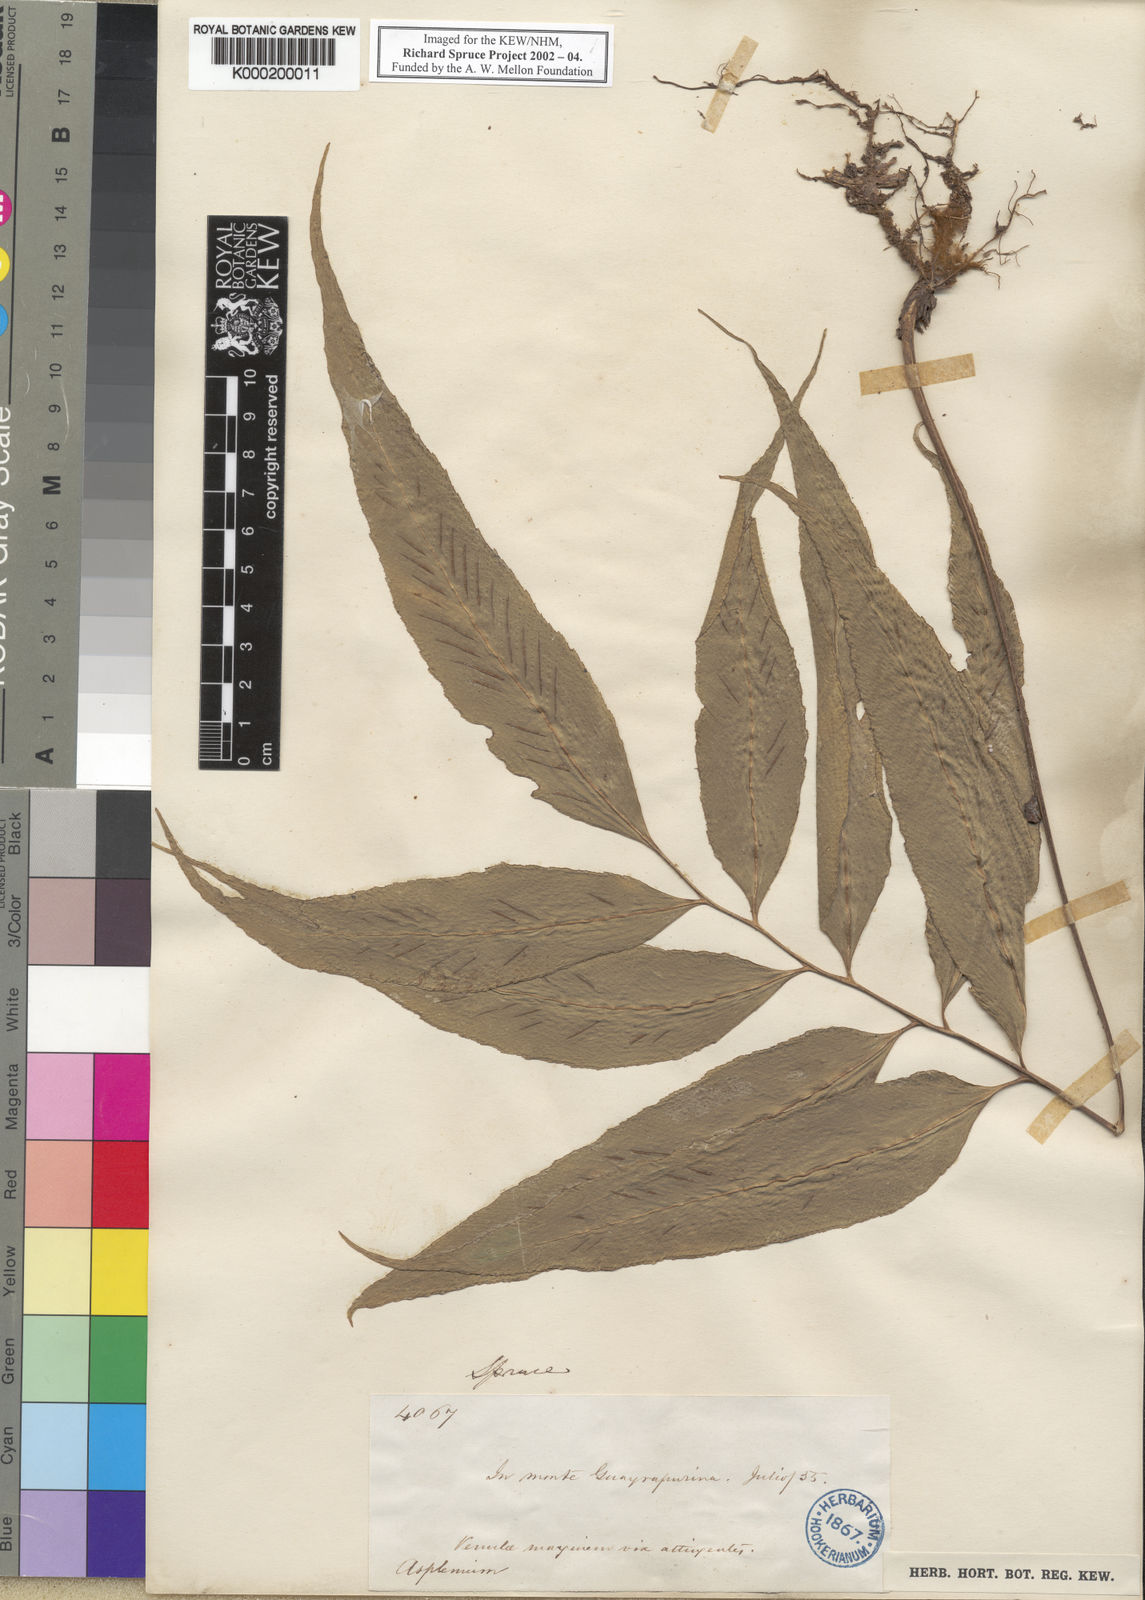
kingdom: Plantae
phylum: Tracheophyta
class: Polypodiopsida
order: Polypodiales
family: Aspleniaceae
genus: Asplenium
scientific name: Asplenium
